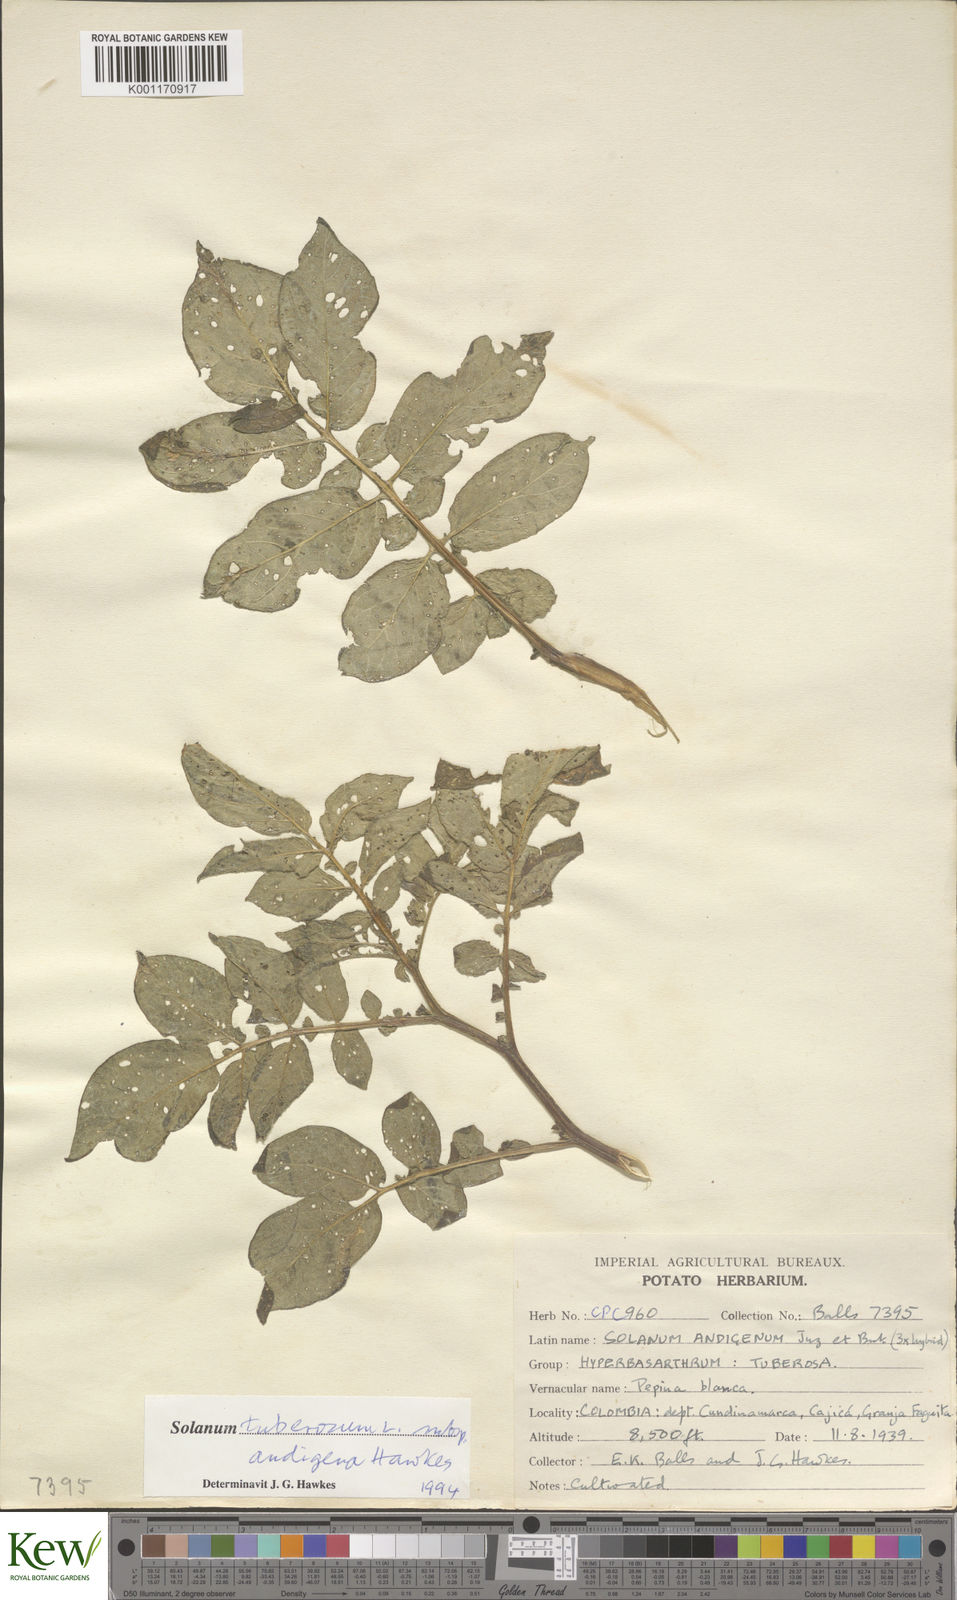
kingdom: Plantae
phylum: Tracheophyta
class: Magnoliopsida
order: Solanales
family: Solanaceae
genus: Solanum
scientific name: Solanum tuberosum
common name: Potato
